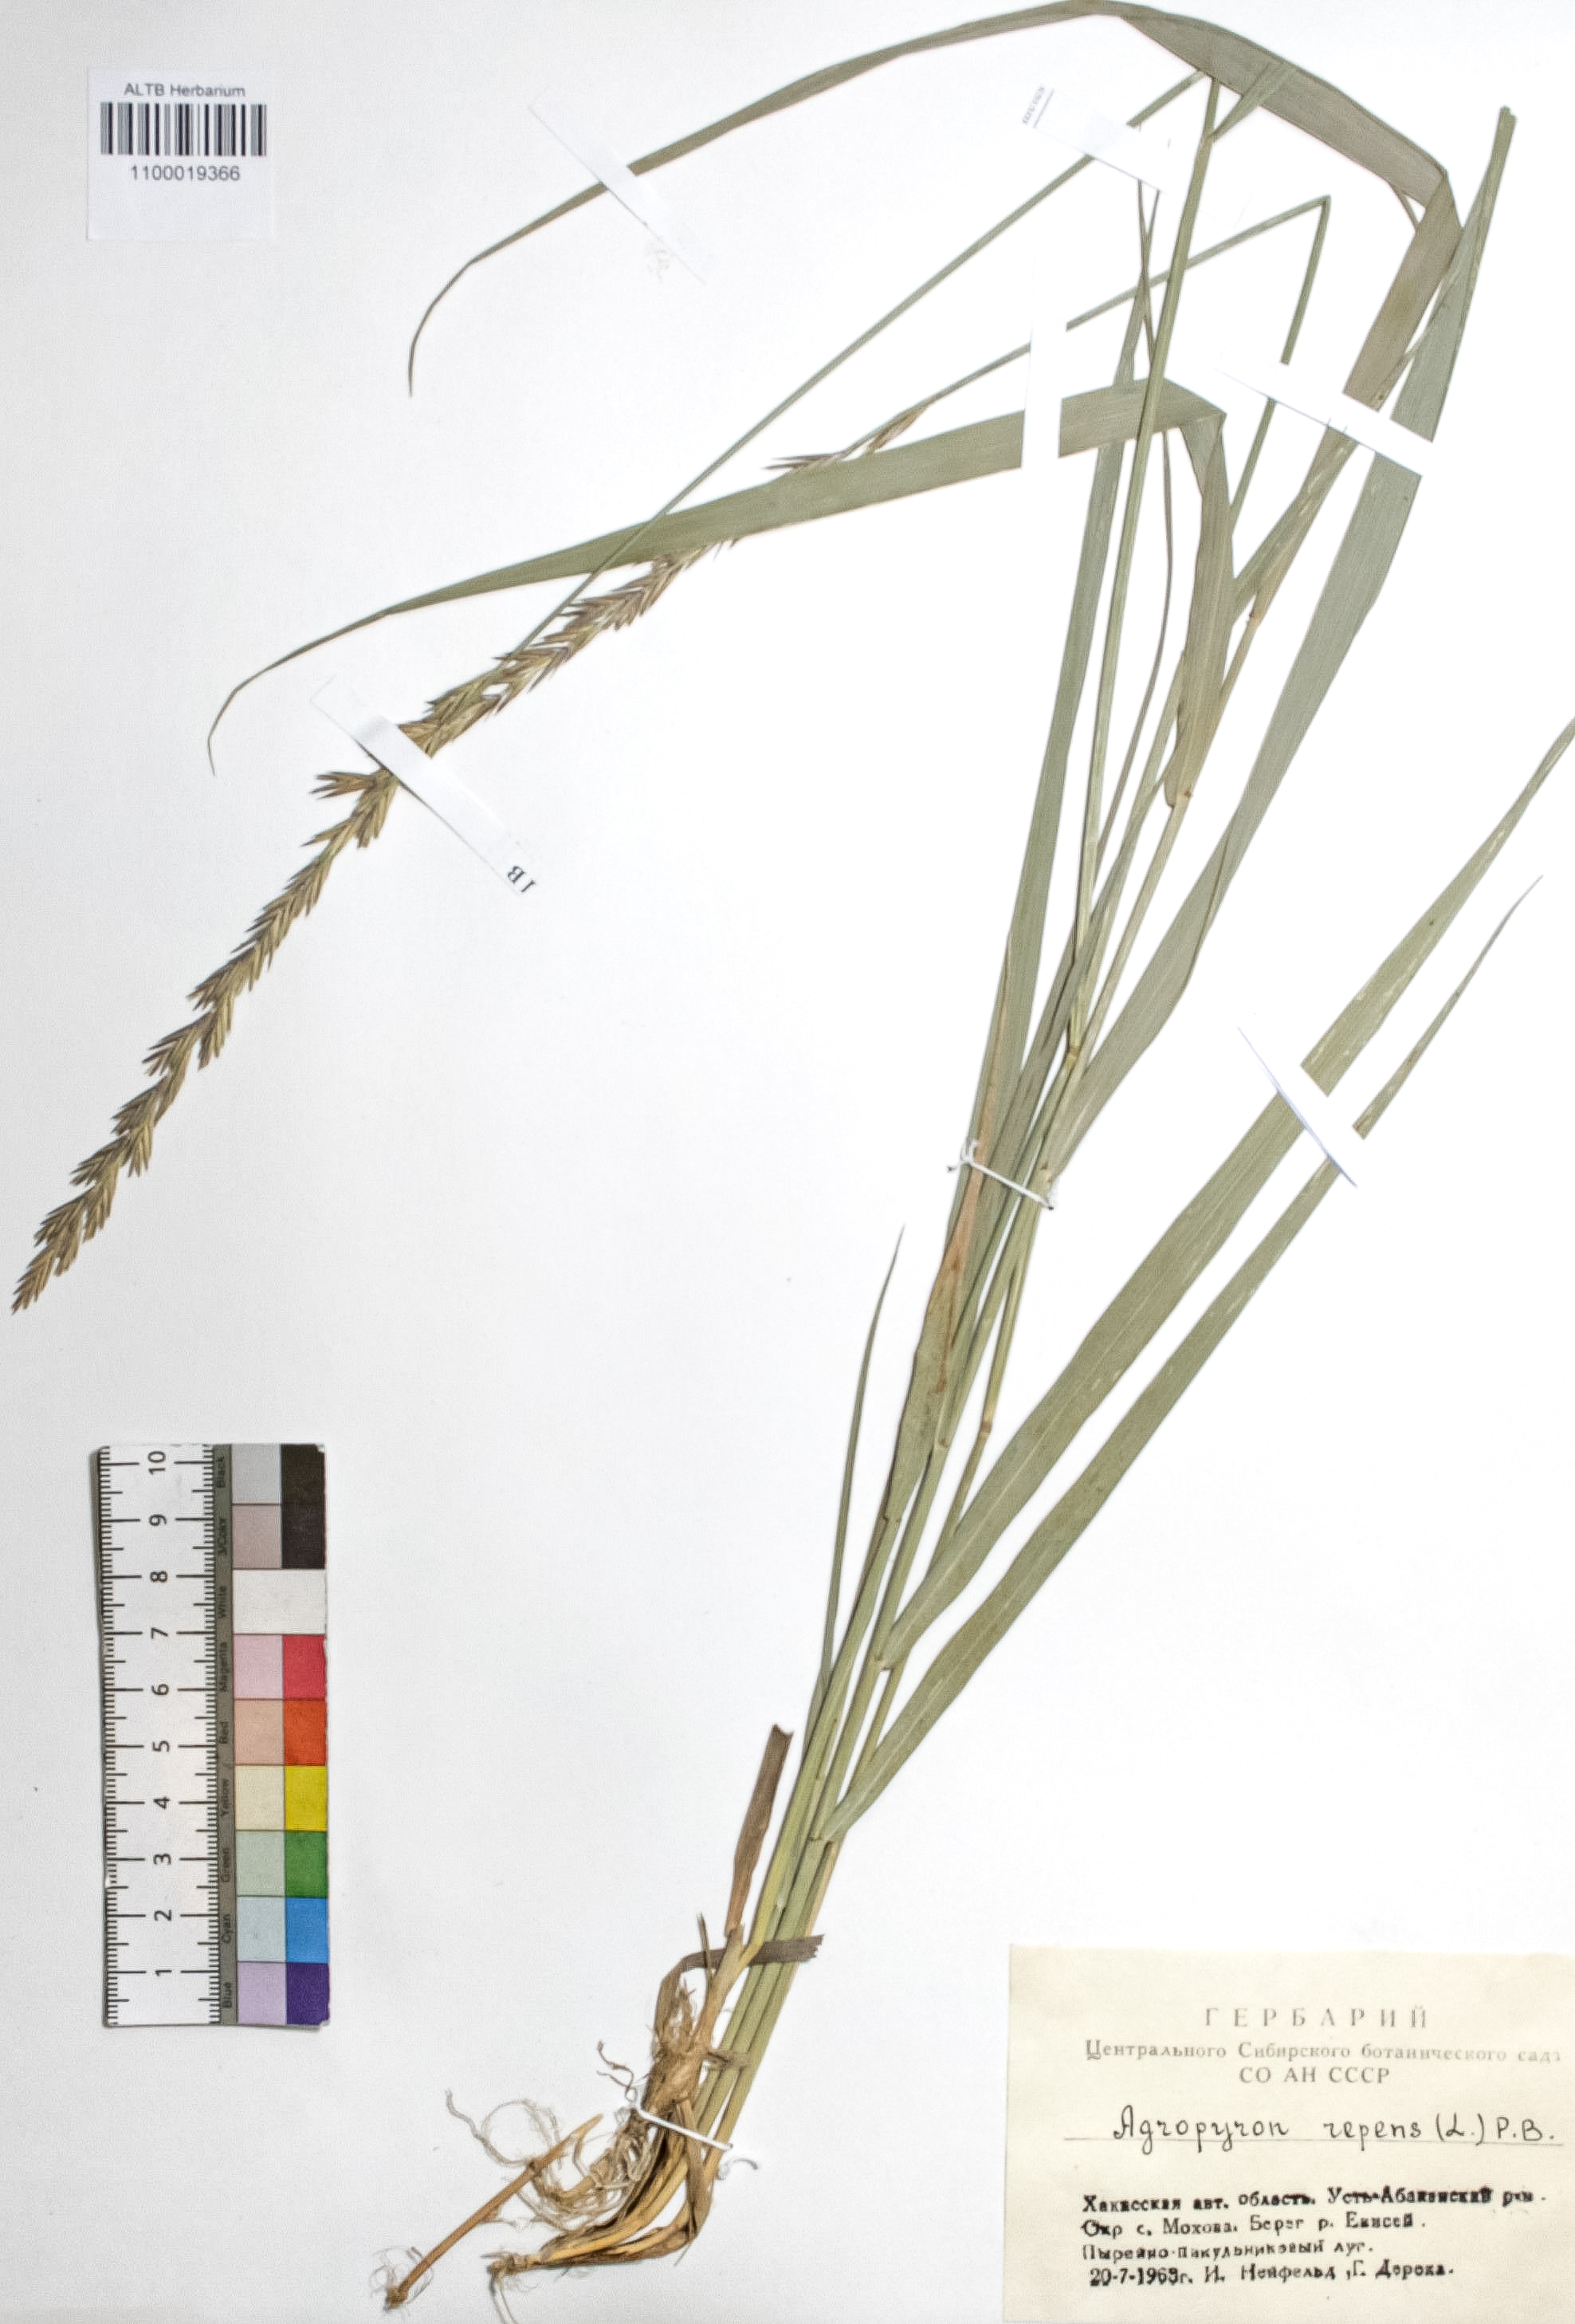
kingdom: Plantae
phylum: Tracheophyta
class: Liliopsida
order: Poales
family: Poaceae
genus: Elymus
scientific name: Elymus repens
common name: Quackgrass
